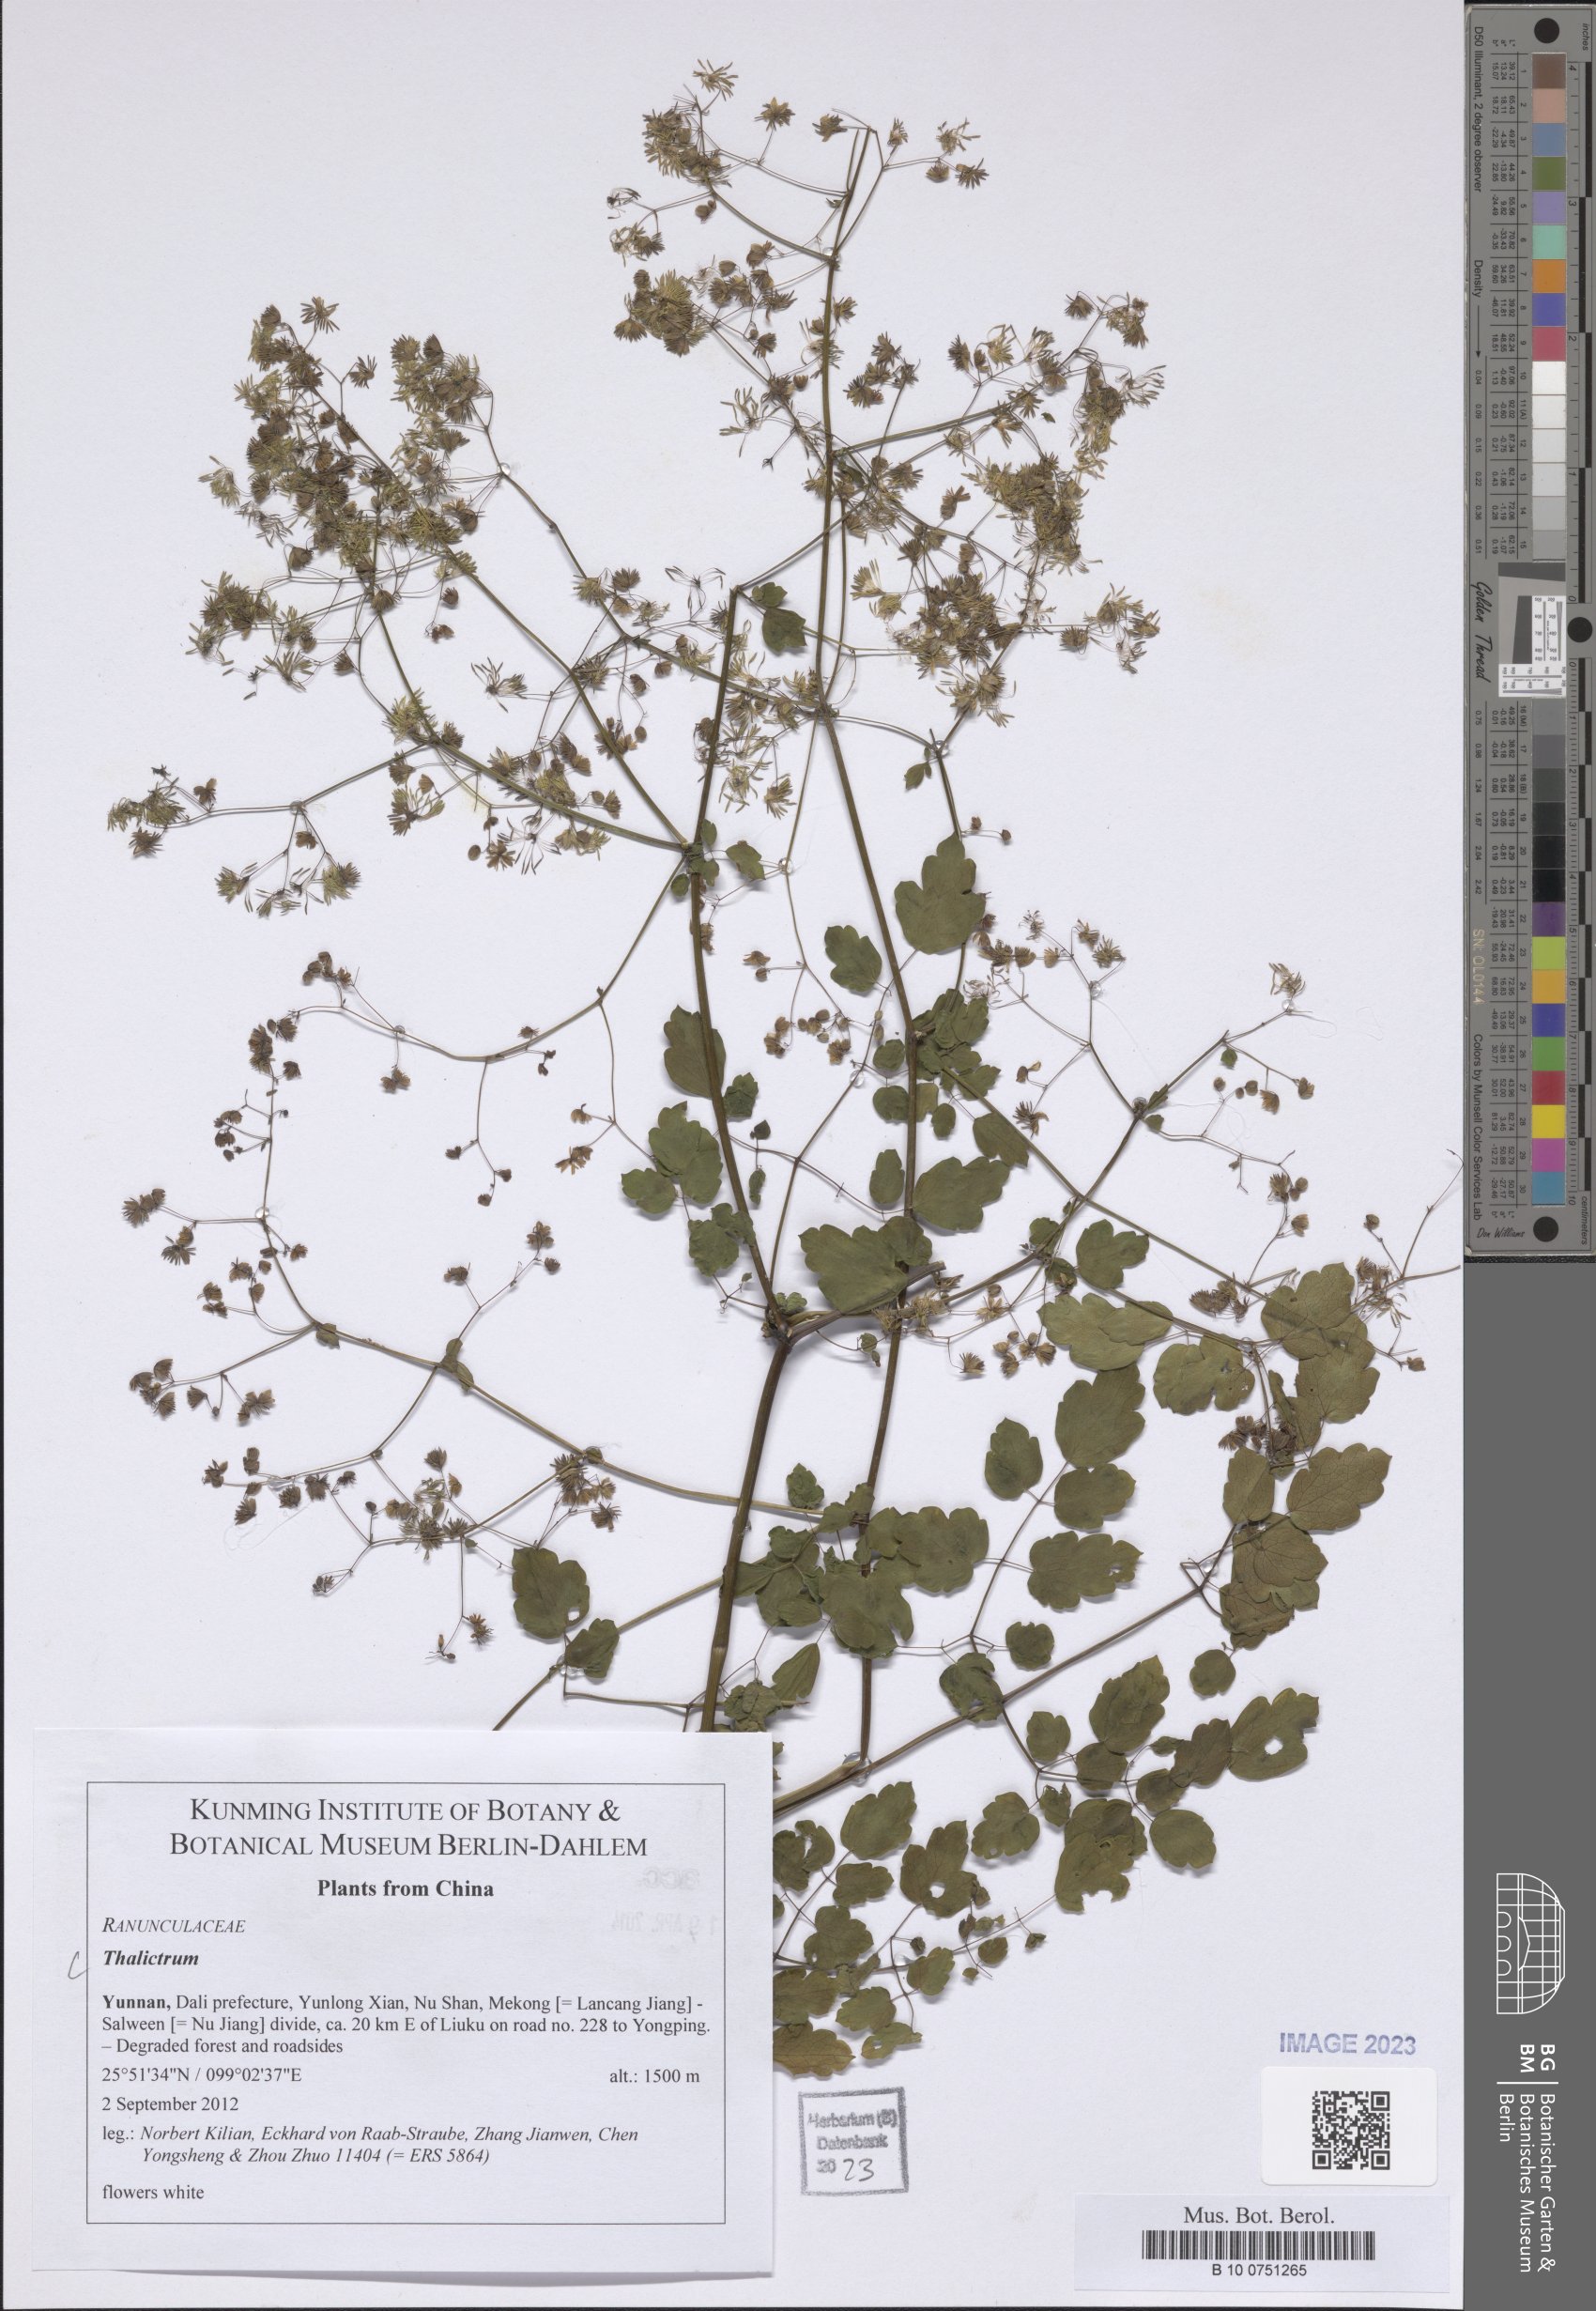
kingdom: Plantae
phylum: Tracheophyta
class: Magnoliopsida
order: Ranunculales
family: Ranunculaceae
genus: Thalictrum
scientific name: Thalictrum
